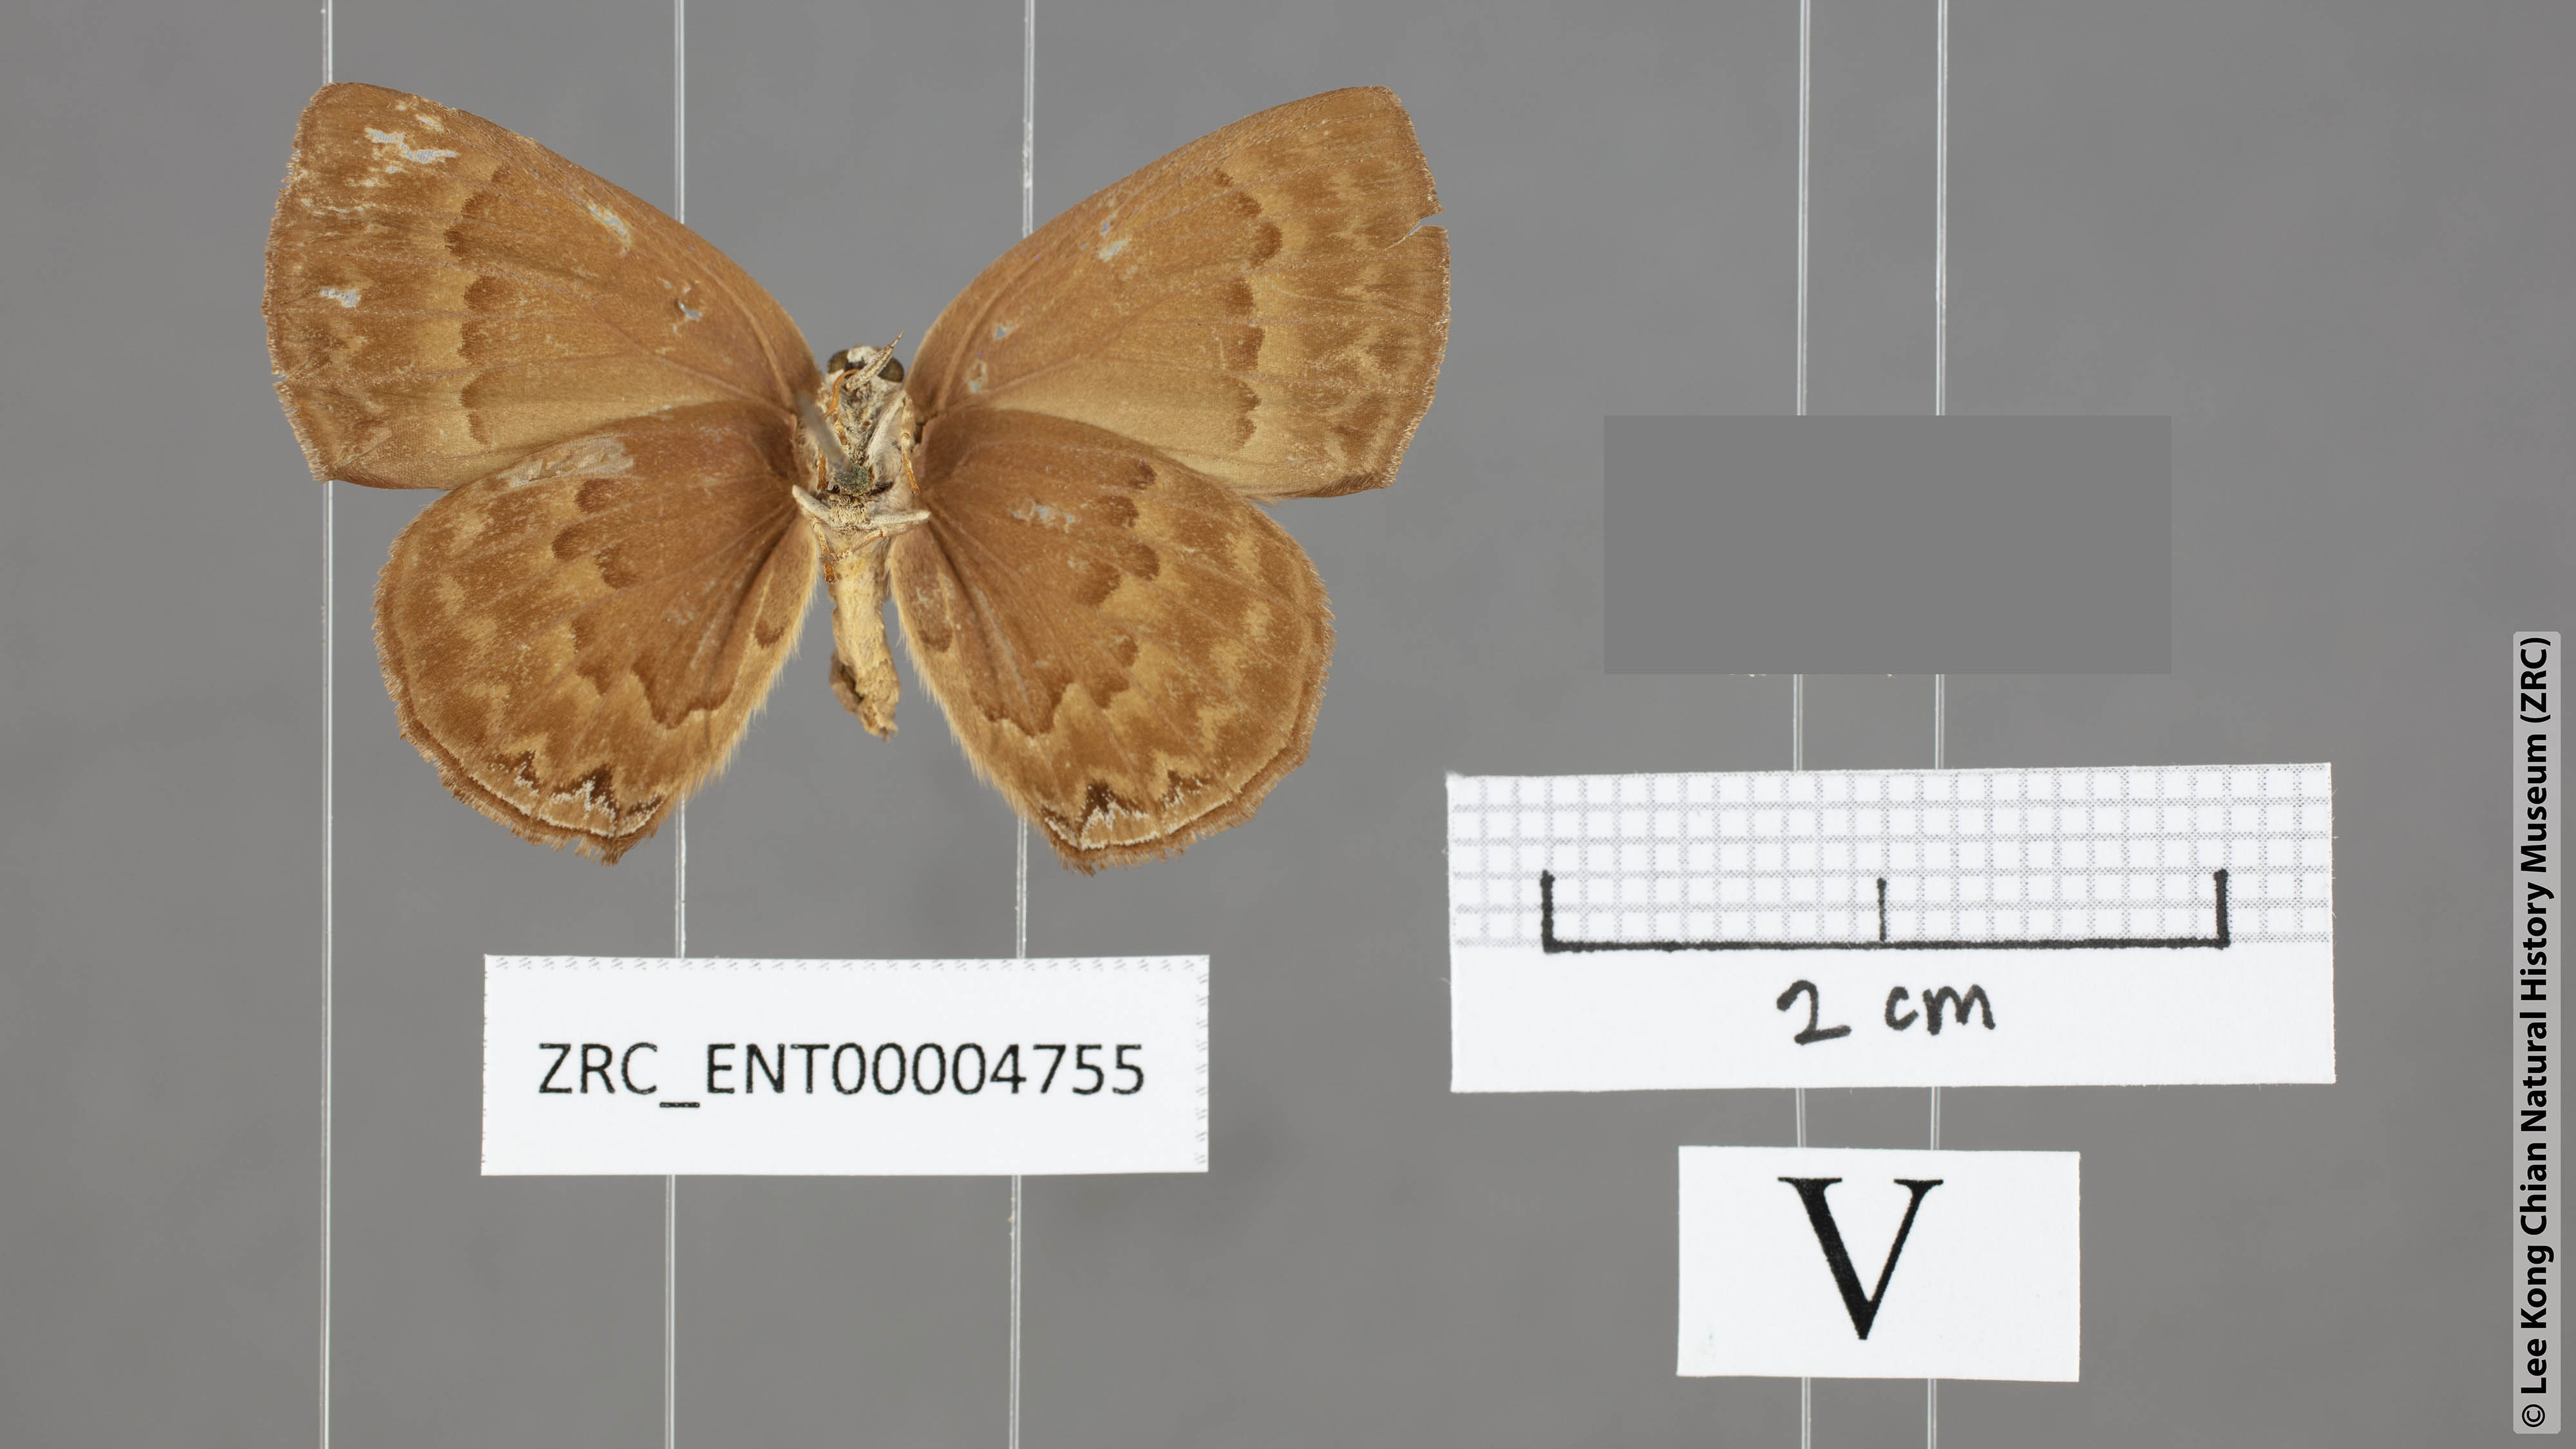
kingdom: Animalia
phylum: Arthropoda
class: Insecta
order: Lepidoptera
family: Lycaenidae
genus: Deramas
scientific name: Deramas livena
